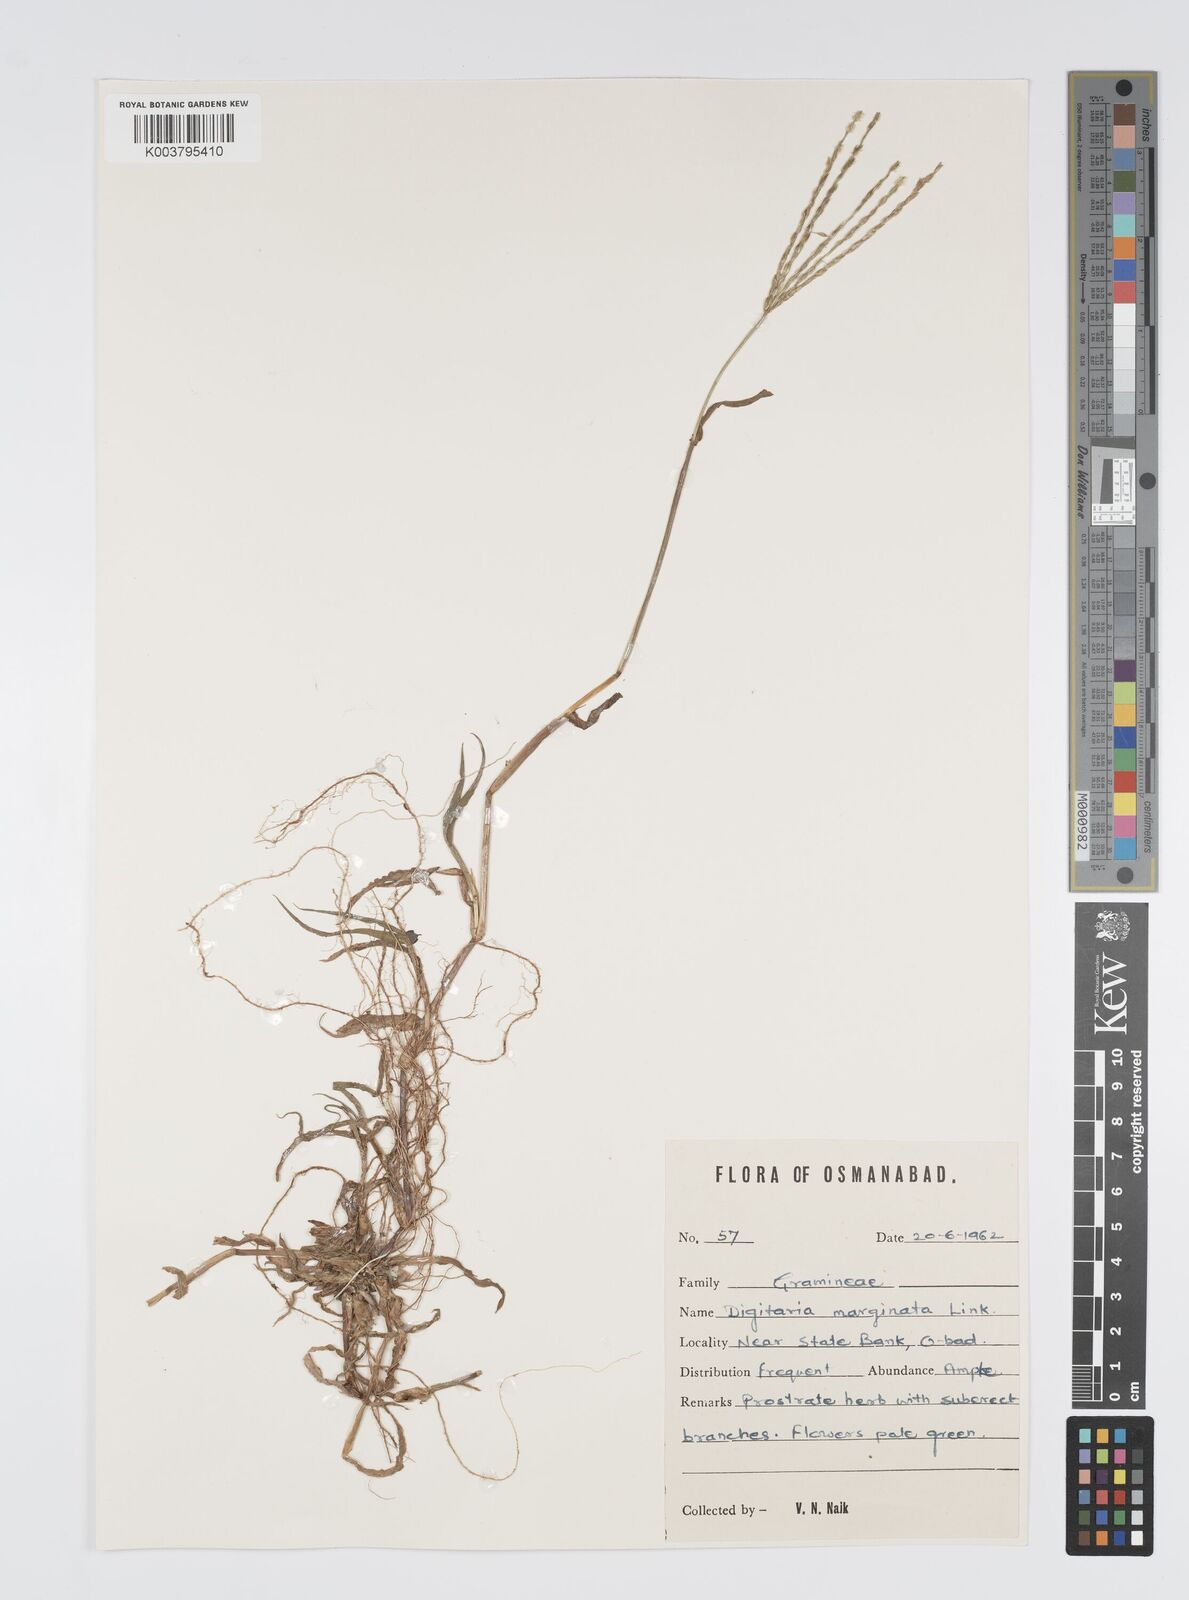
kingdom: Plantae
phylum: Tracheophyta
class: Liliopsida
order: Poales
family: Poaceae
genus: Digitaria
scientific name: Digitaria ciliaris
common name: Tropical finger-grass
